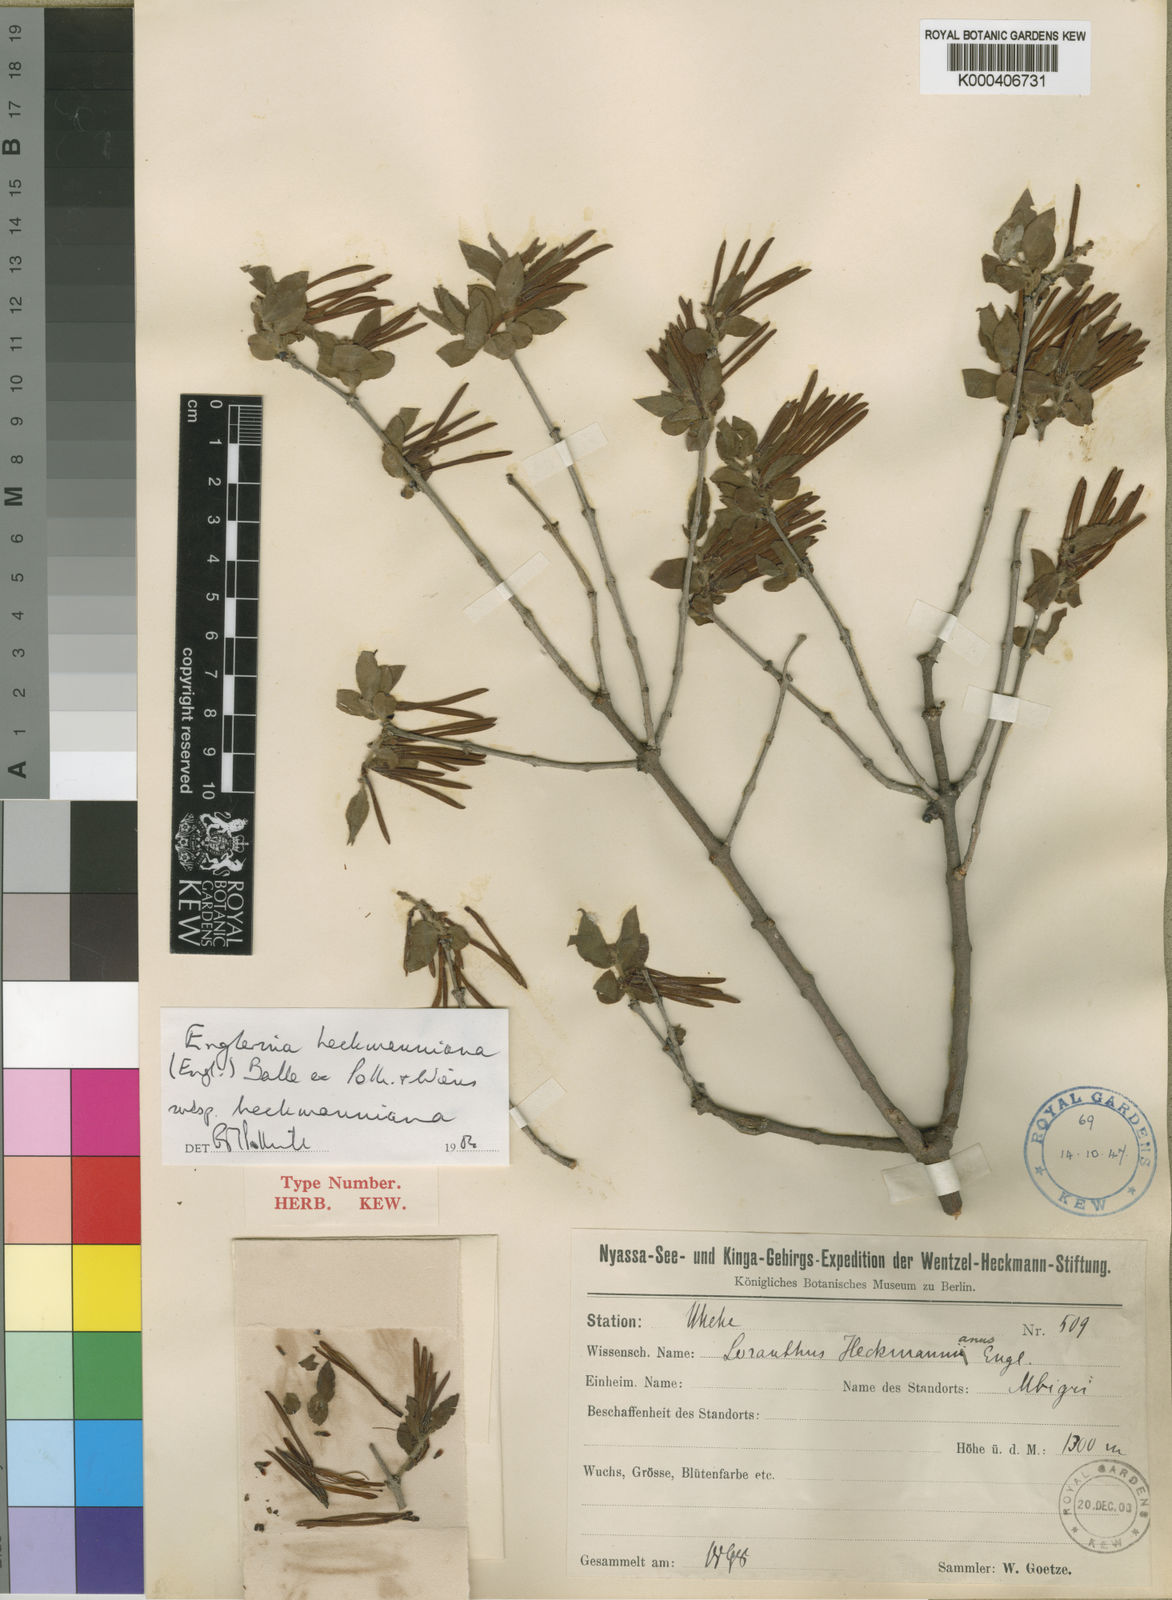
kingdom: Plantae
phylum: Tracheophyta
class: Magnoliopsida
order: Santalales
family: Loranthaceae
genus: Englerina
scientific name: Englerina heckmanniana
